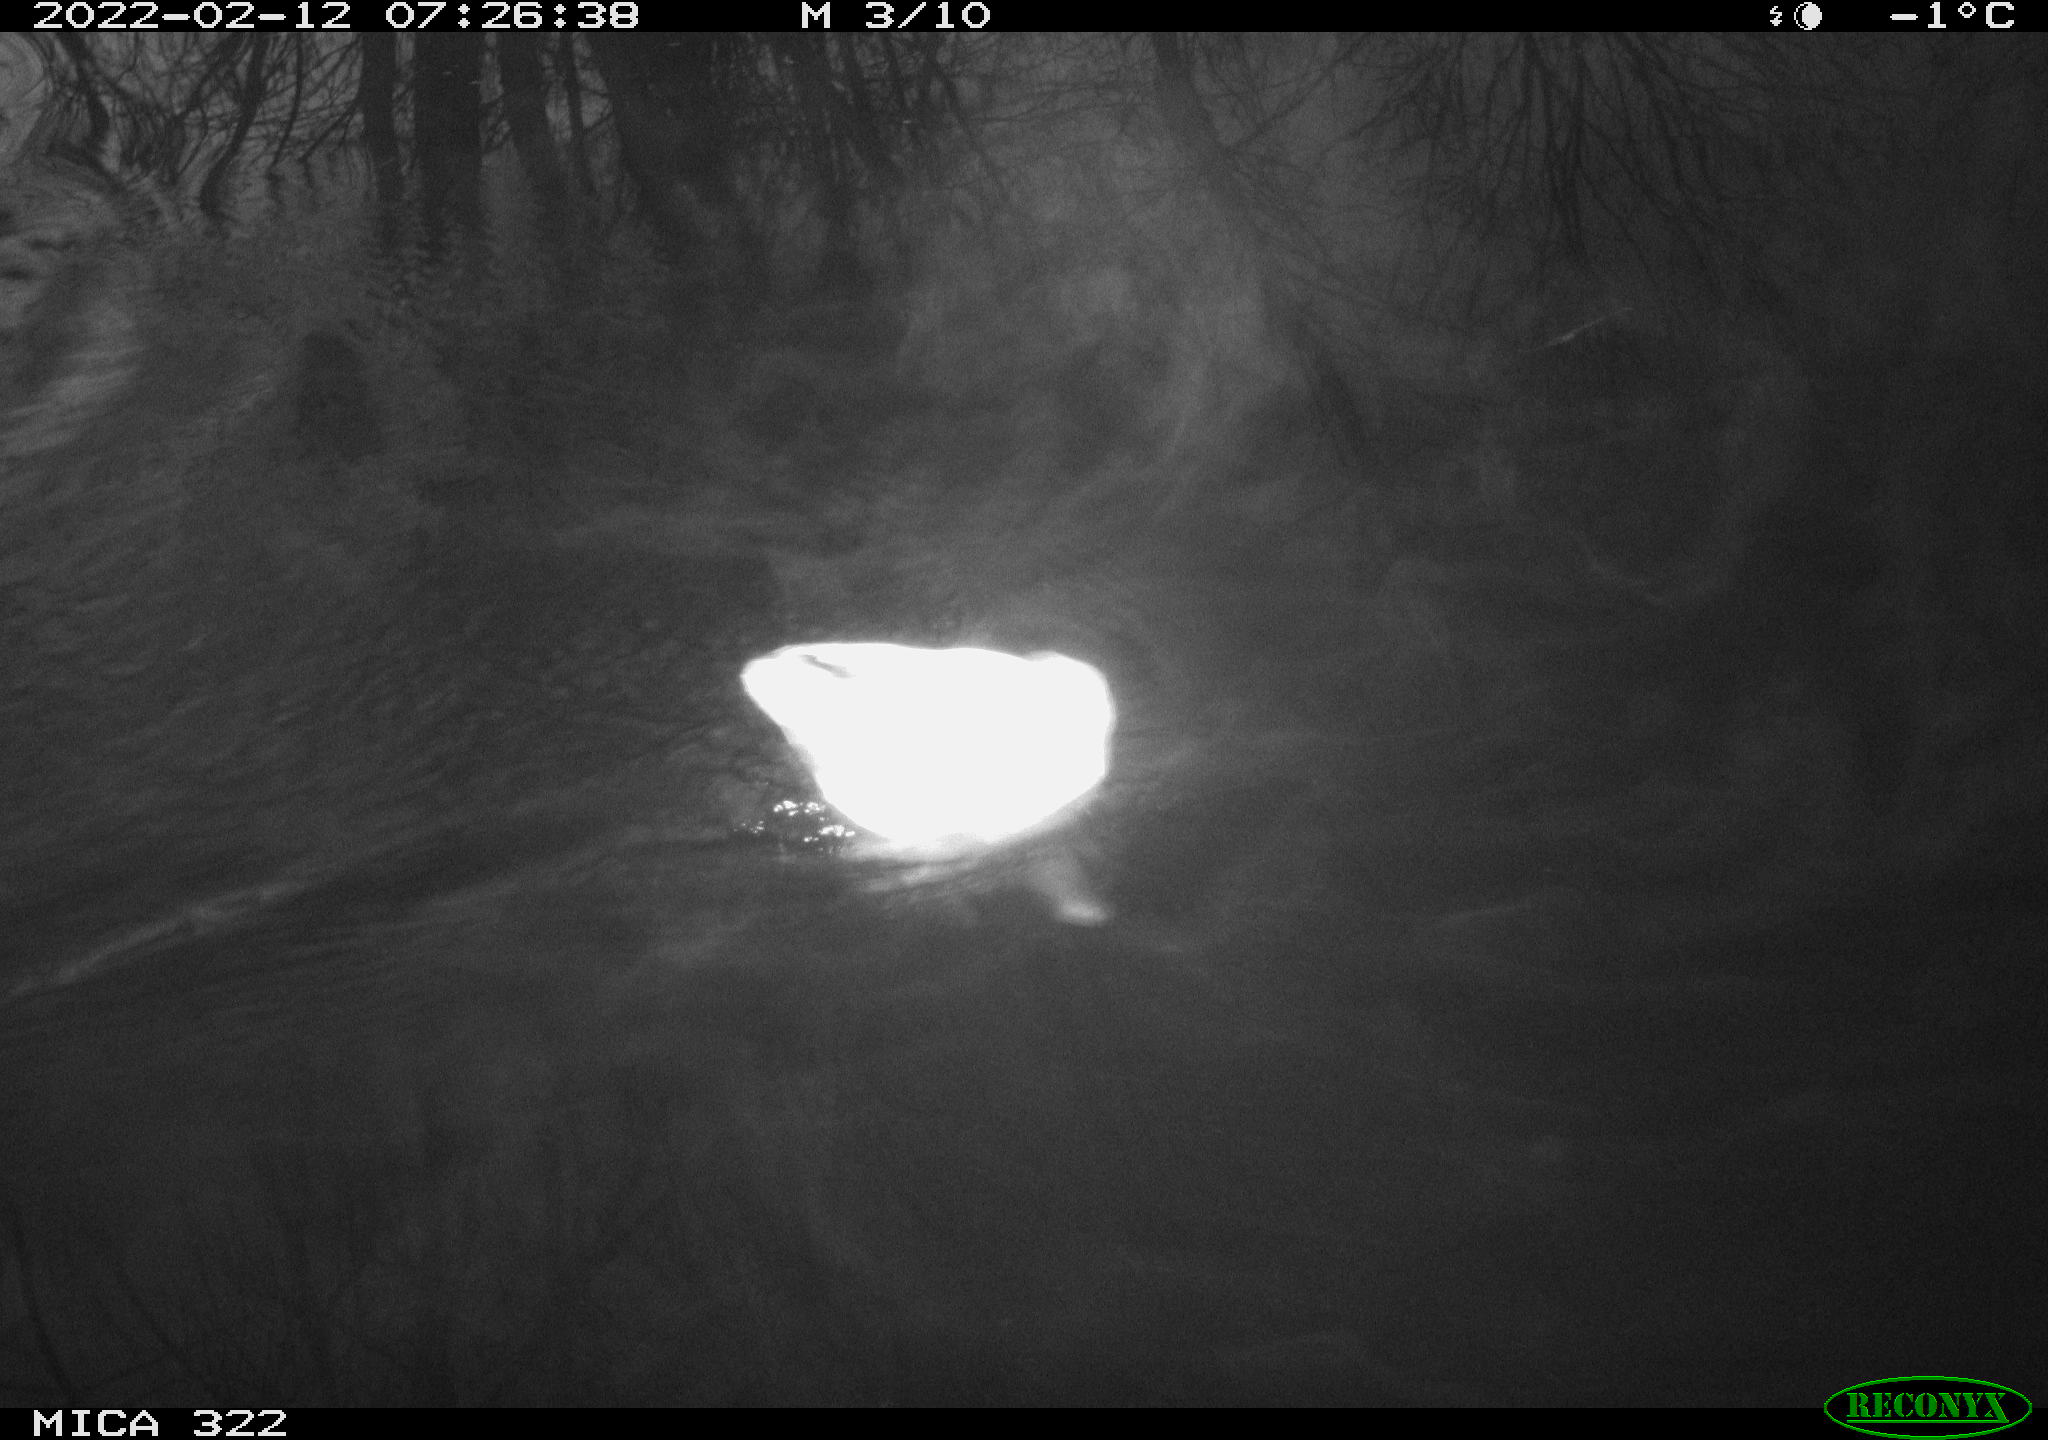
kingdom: Animalia
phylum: Chordata
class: Aves
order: Gruiformes
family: Rallidae
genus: Gallinula
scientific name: Gallinula chloropus
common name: Common moorhen
